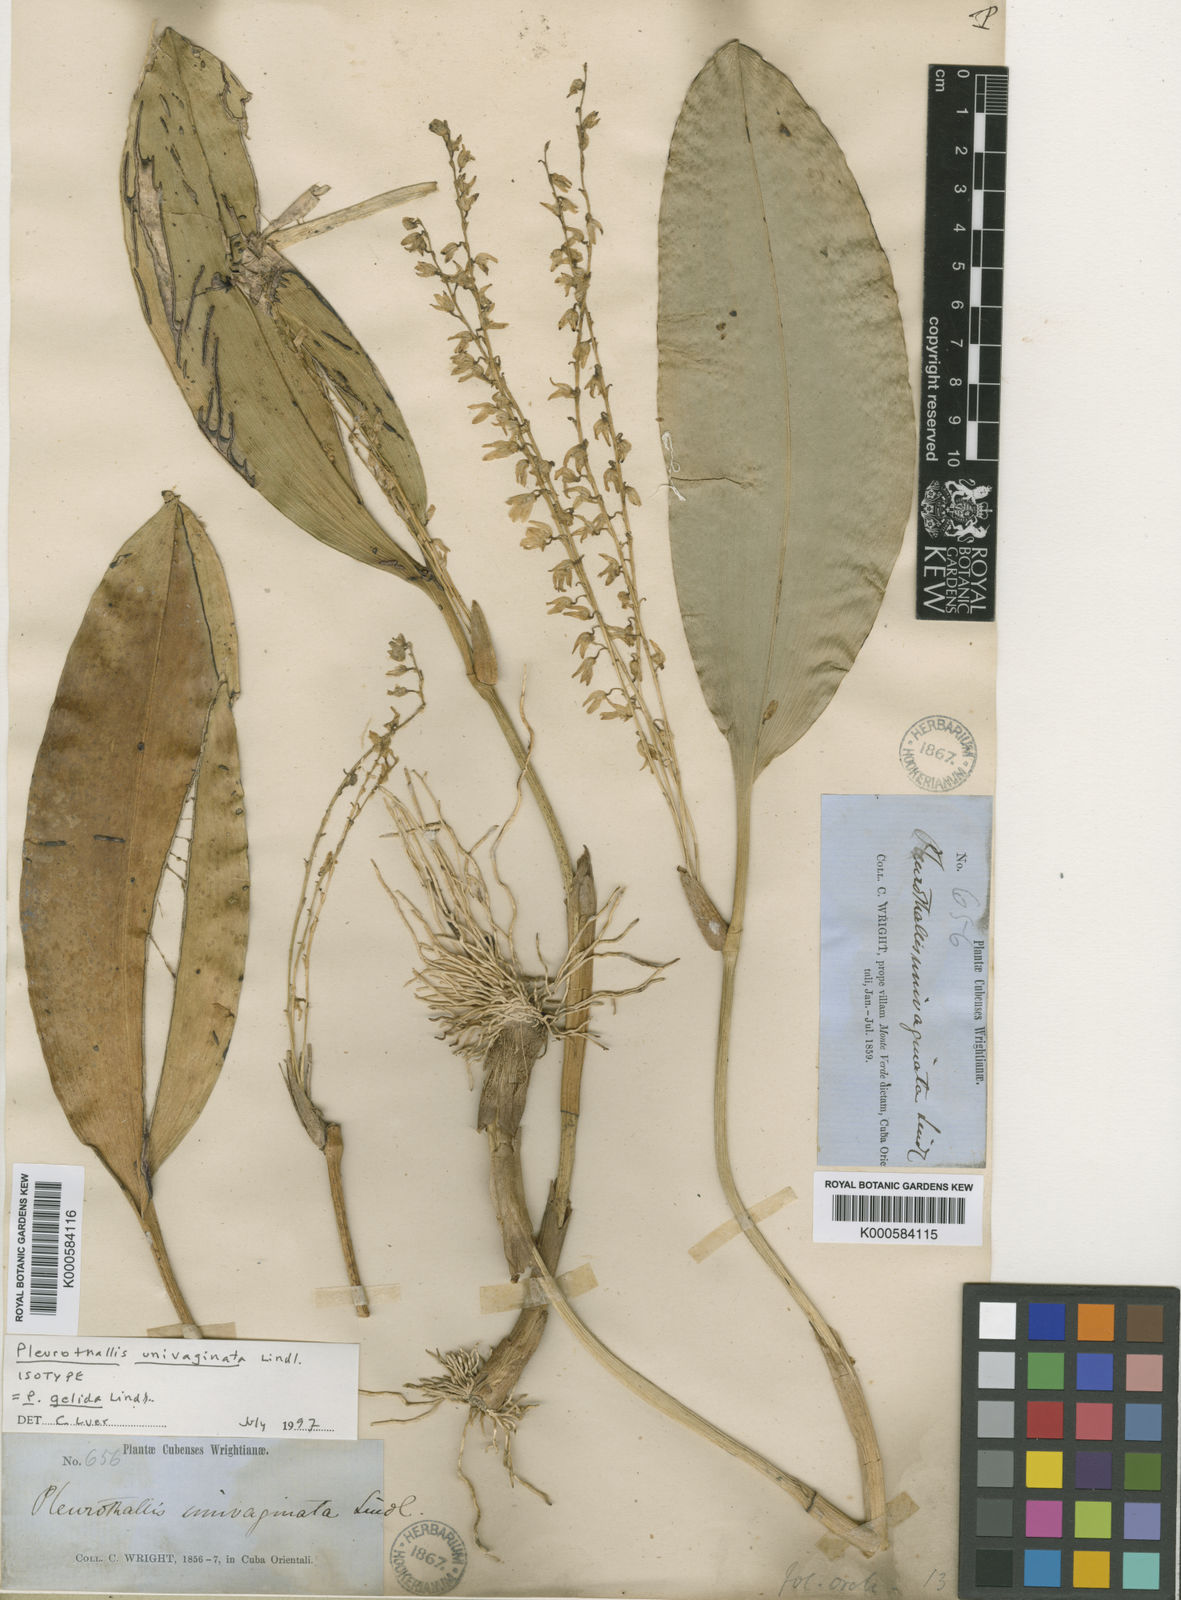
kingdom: Plantae
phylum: Tracheophyta
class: Liliopsida
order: Asparagales
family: Orchidaceae
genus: Stelis
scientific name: Stelis gelida
